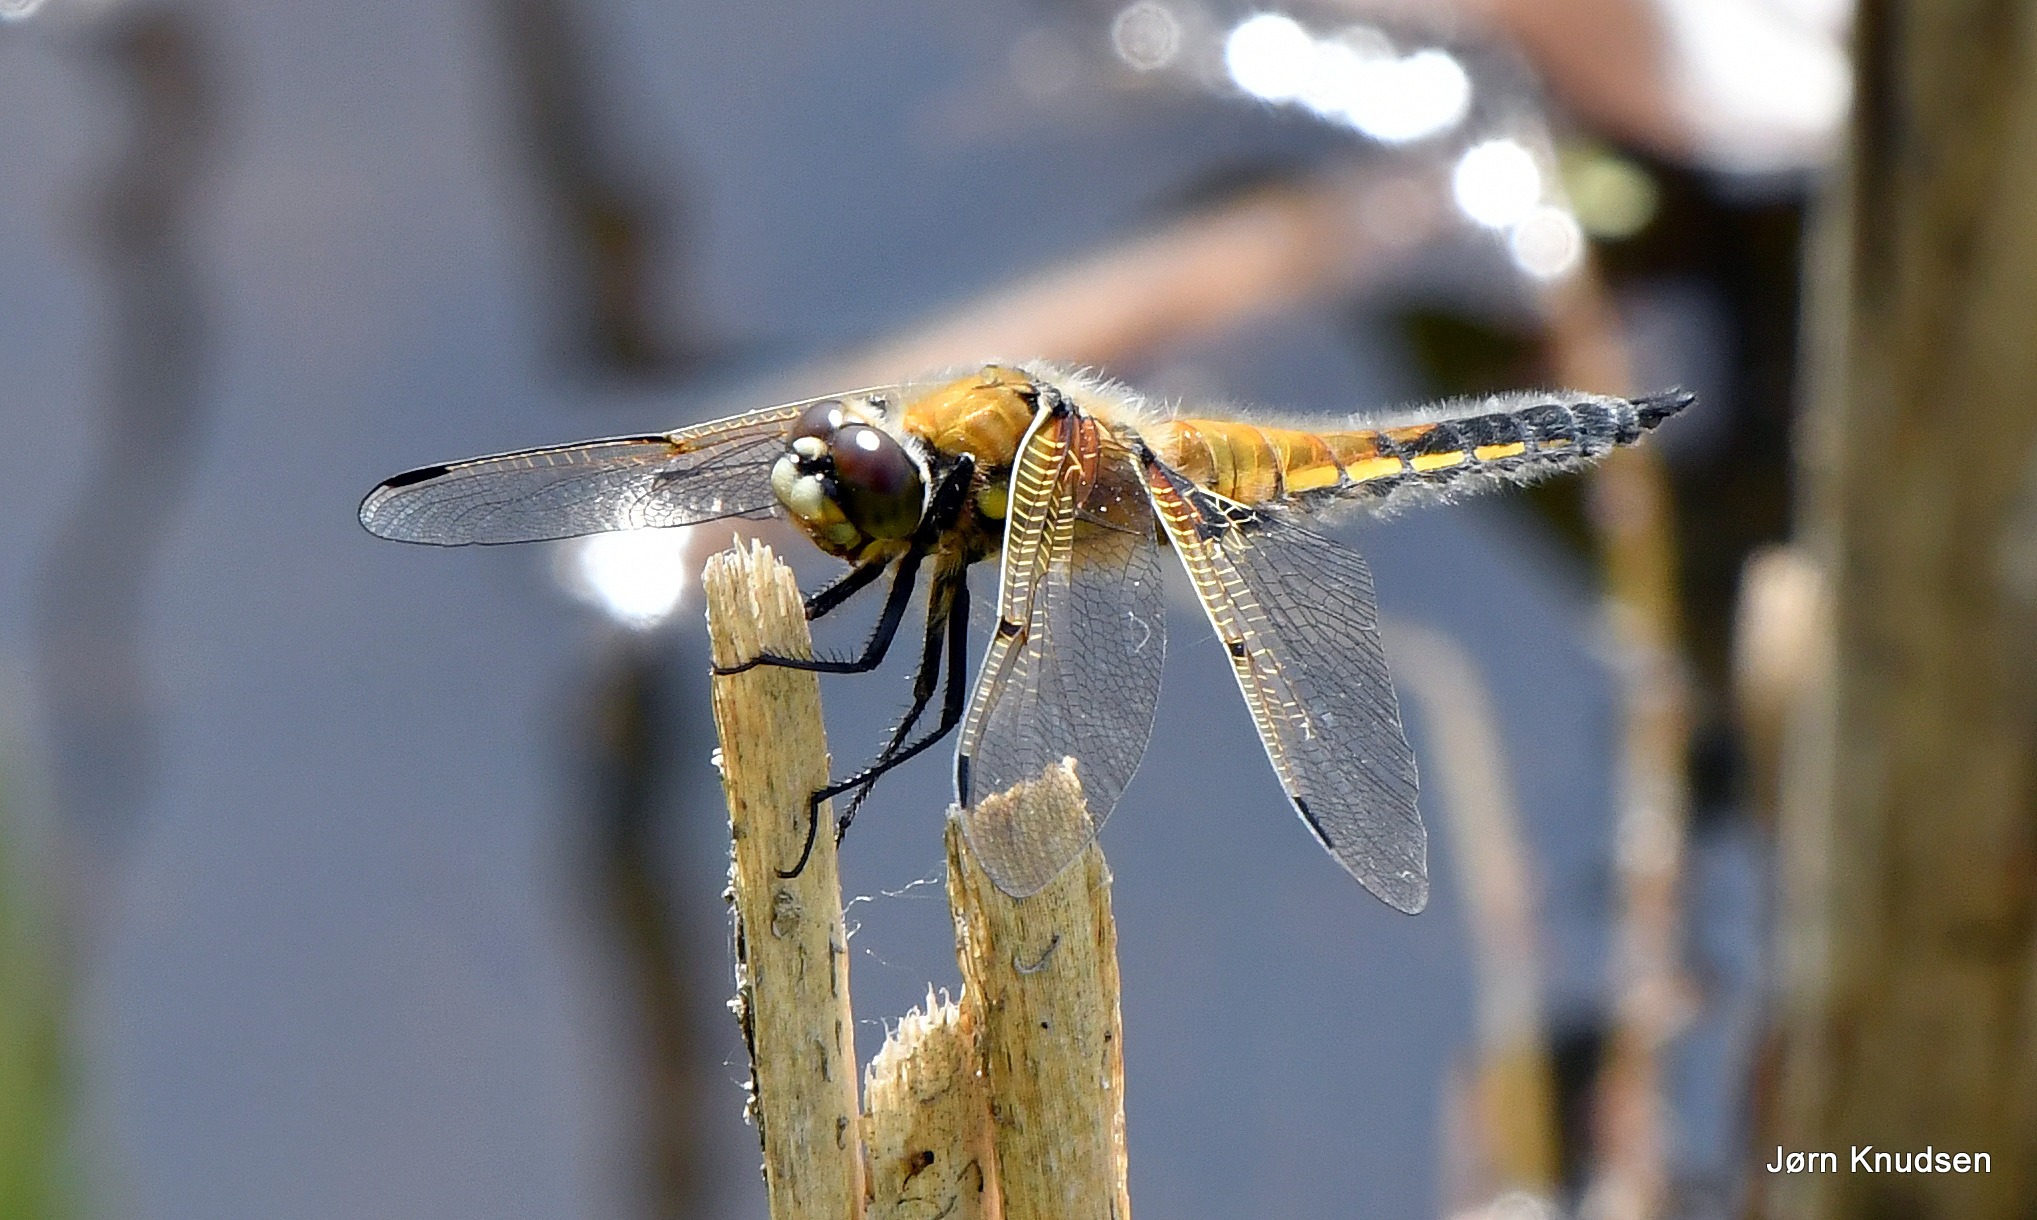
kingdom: Animalia
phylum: Arthropoda
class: Insecta
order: Odonata
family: Libellulidae
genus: Libellula
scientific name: Libellula quadrimaculata
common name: Fireplettet libel
